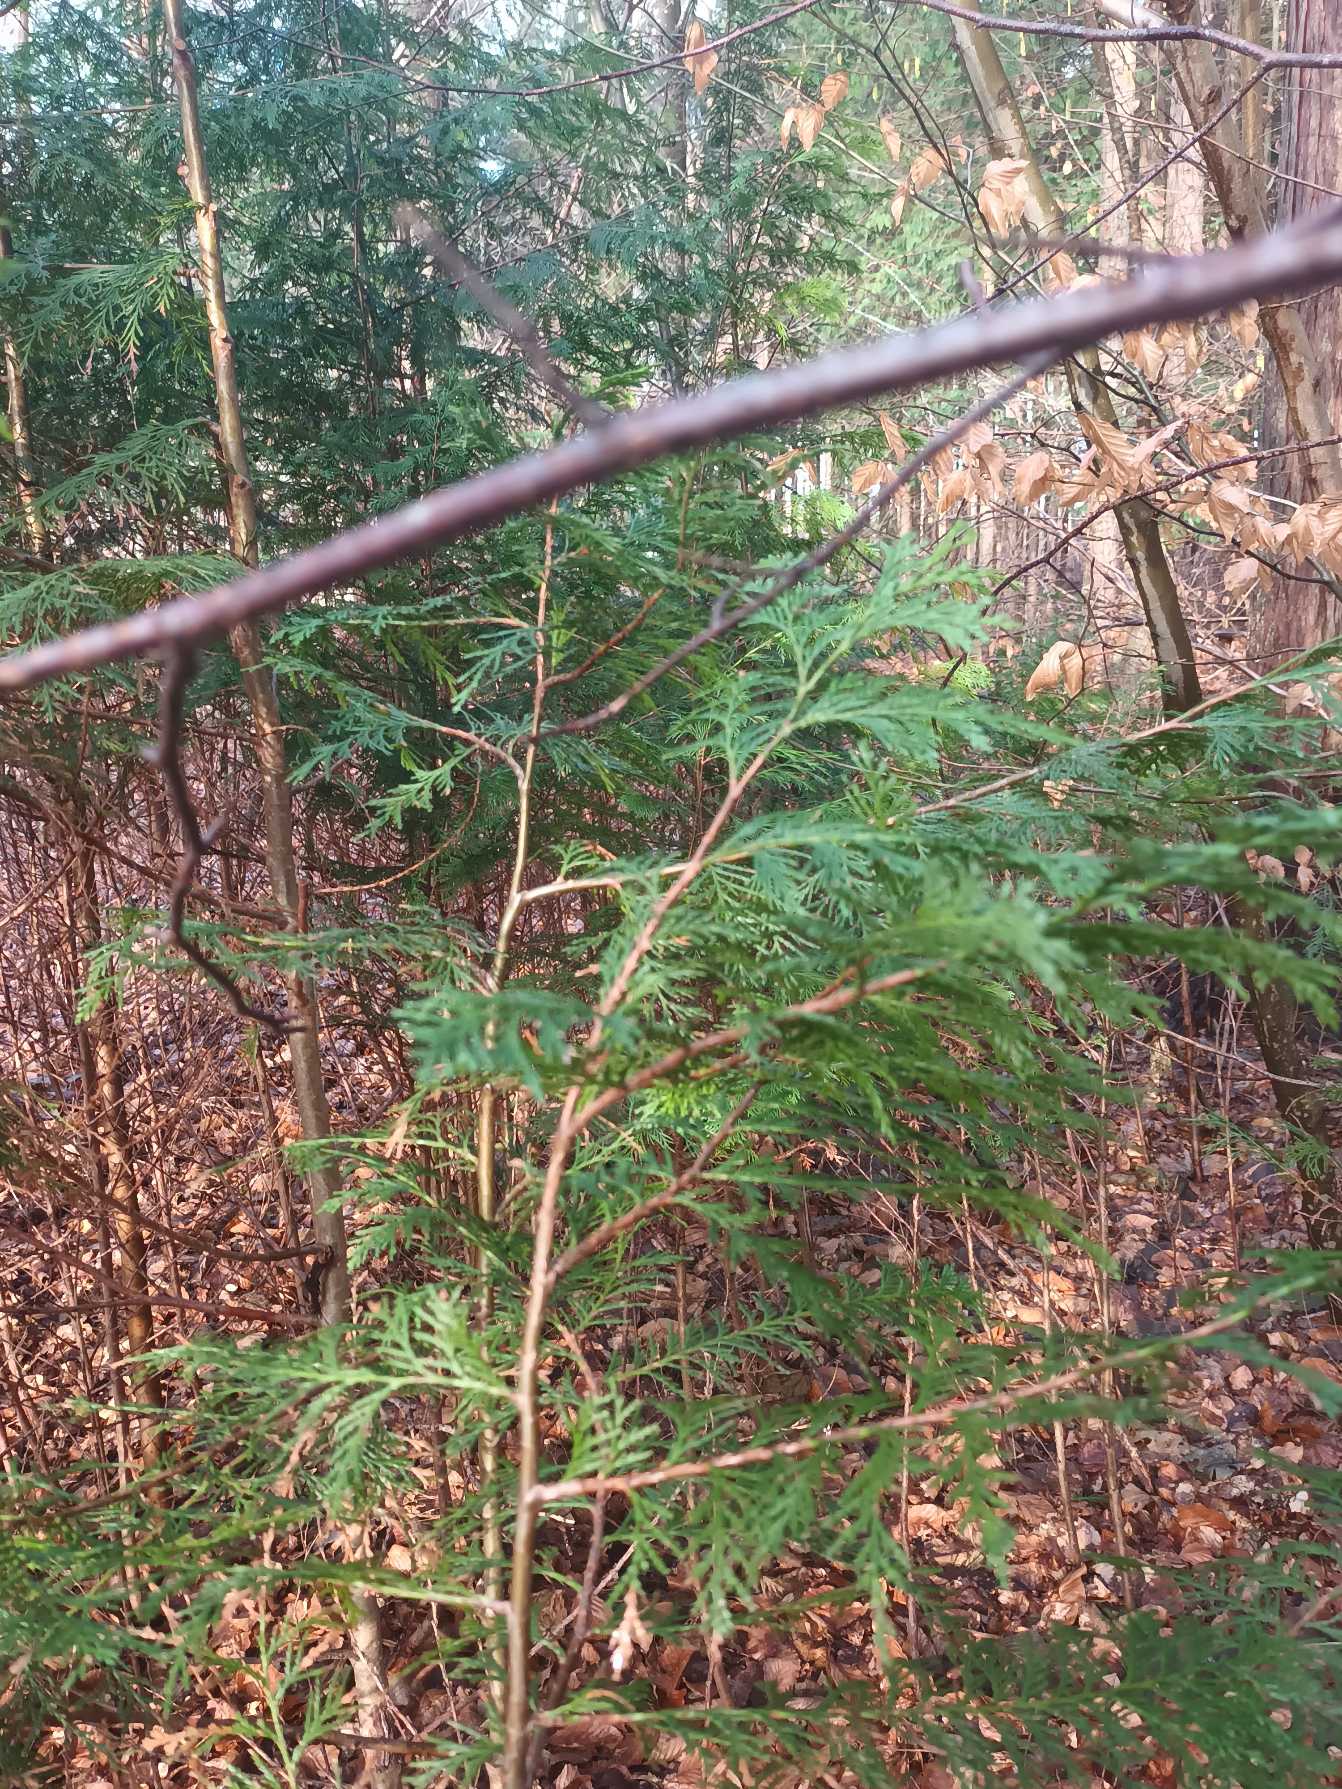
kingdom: Plantae
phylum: Tracheophyta
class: Pinopsida
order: Pinales
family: Cupressaceae
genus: Chamaecyparis
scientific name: Chamaecyparis lawsoniana
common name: Ædelcypres
